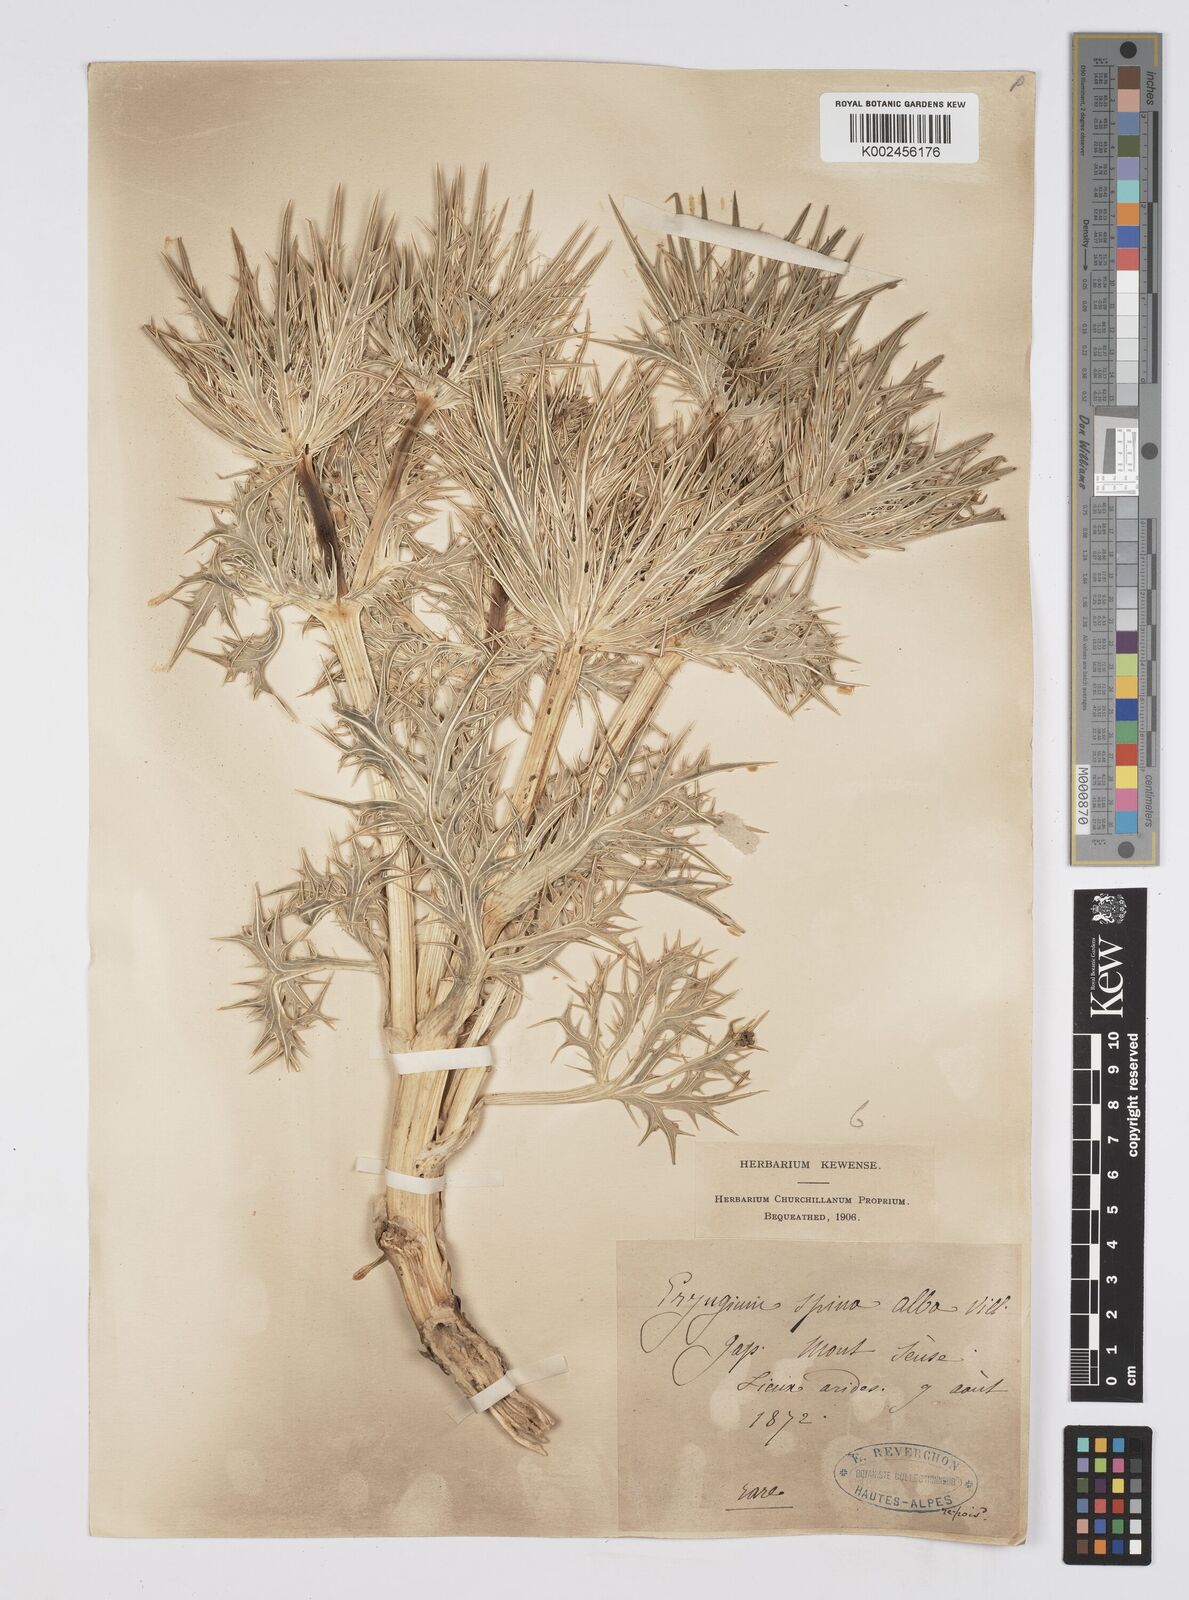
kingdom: Plantae
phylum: Tracheophyta
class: Magnoliopsida
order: Apiales
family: Apiaceae
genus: Eryngium
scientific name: Eryngium spinalba
